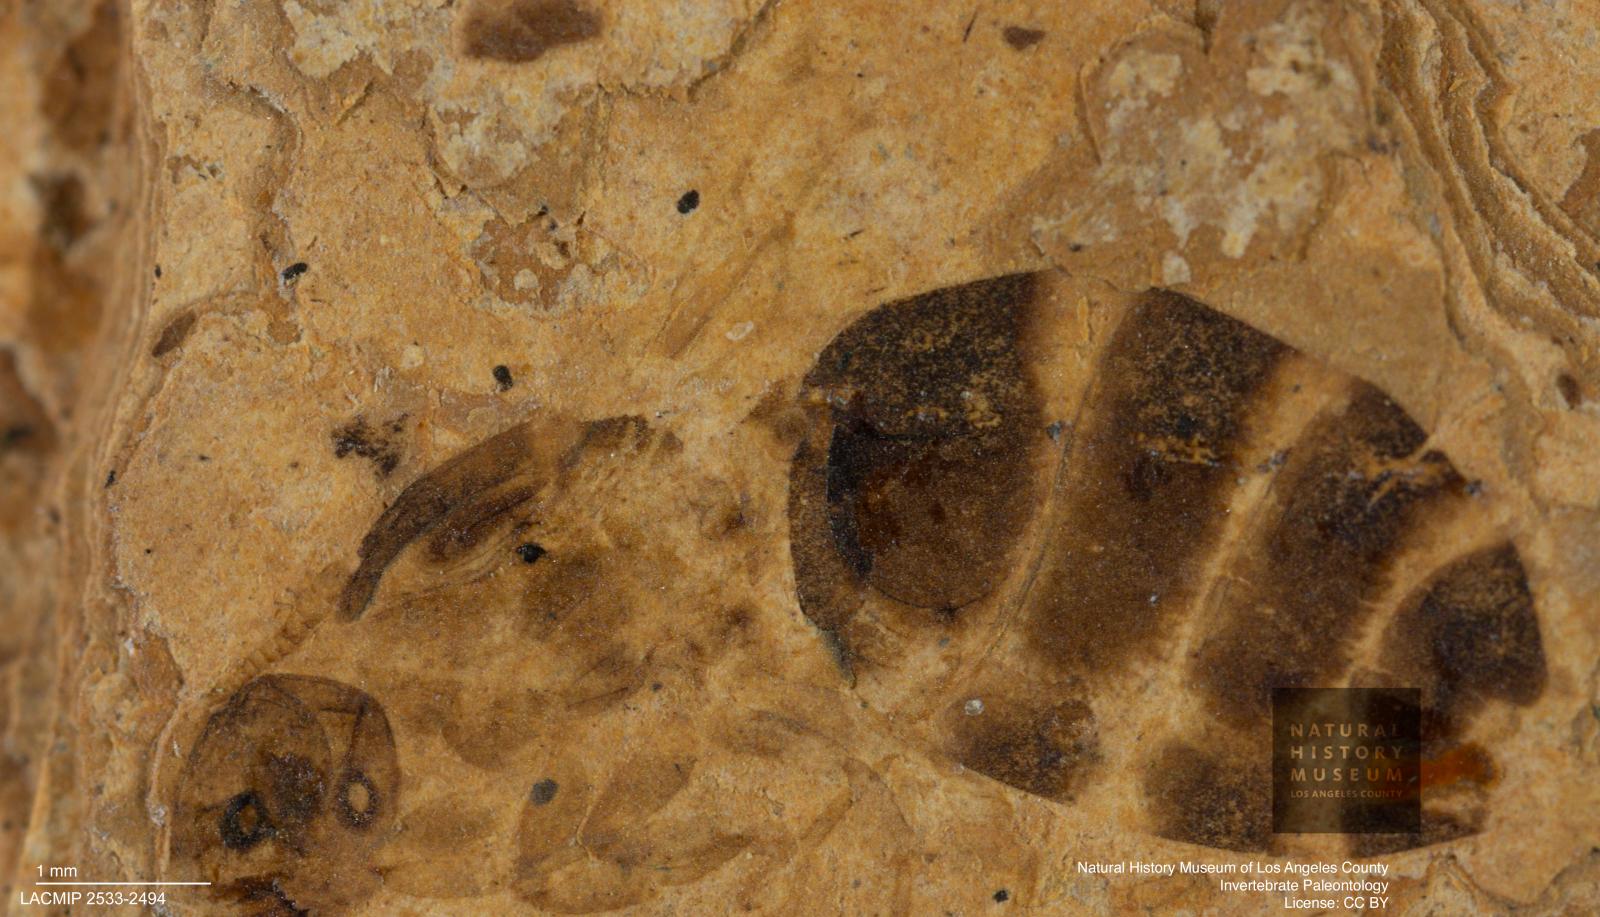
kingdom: Animalia
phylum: Arthropoda
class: Insecta
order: Hymenoptera
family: Formicidae
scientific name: Formicidae
